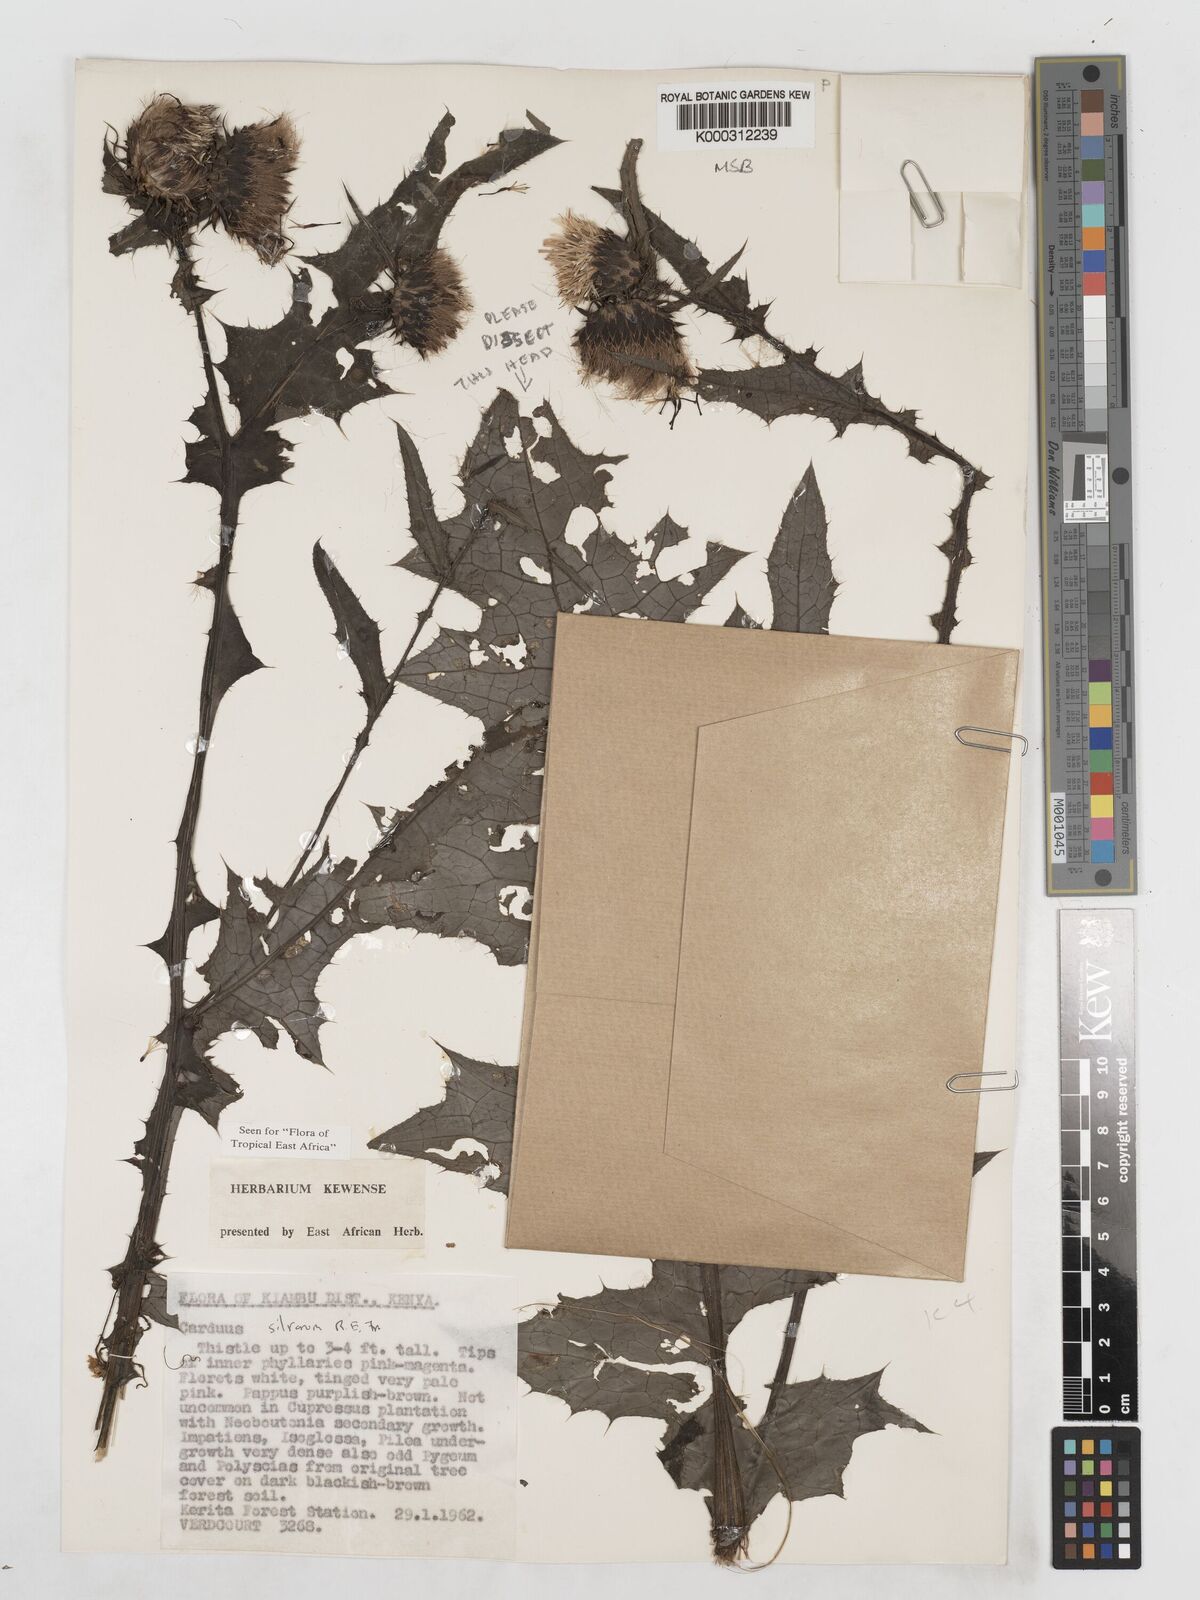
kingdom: Plantae
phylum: Tracheophyta
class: Magnoliopsida
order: Asterales
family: Asteraceae
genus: Carduus
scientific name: Carduus silvarum
